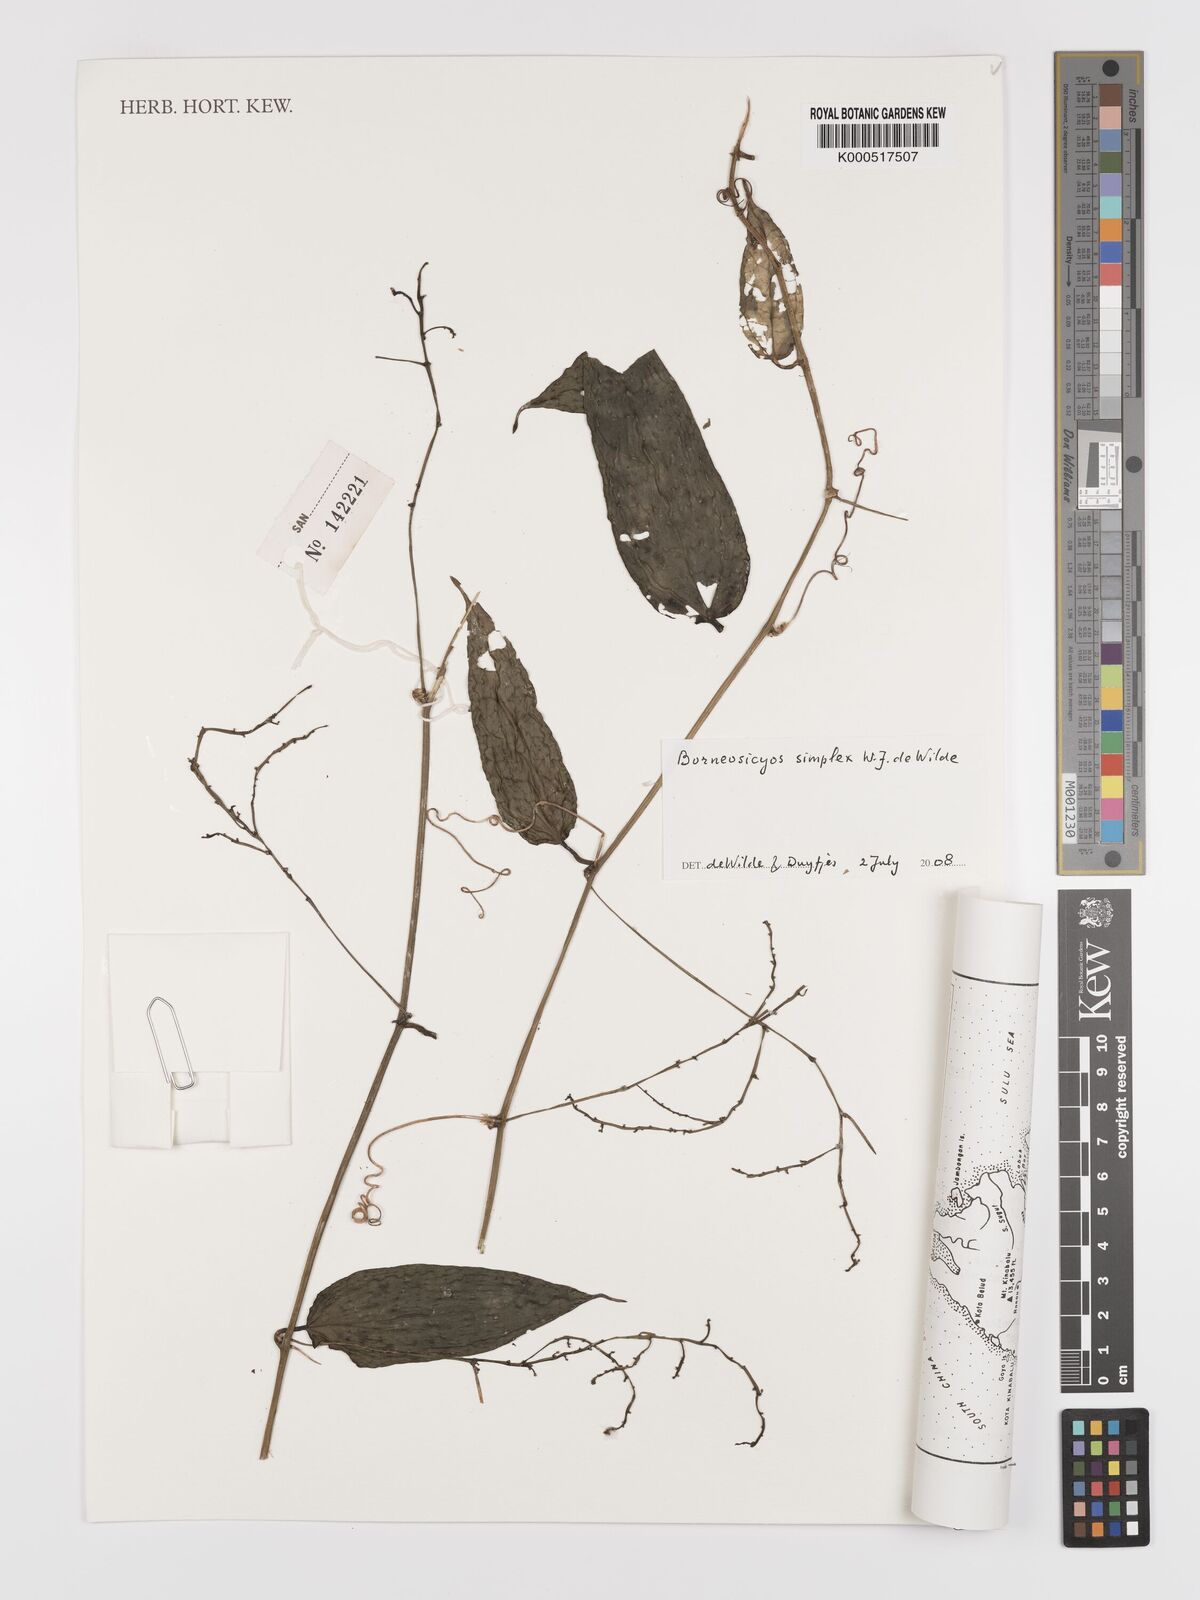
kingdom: Plantae
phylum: Tracheophyta
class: Magnoliopsida
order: Cucurbitales
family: Cucurbitaceae
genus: Borneosicyos
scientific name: Borneosicyos simplex
